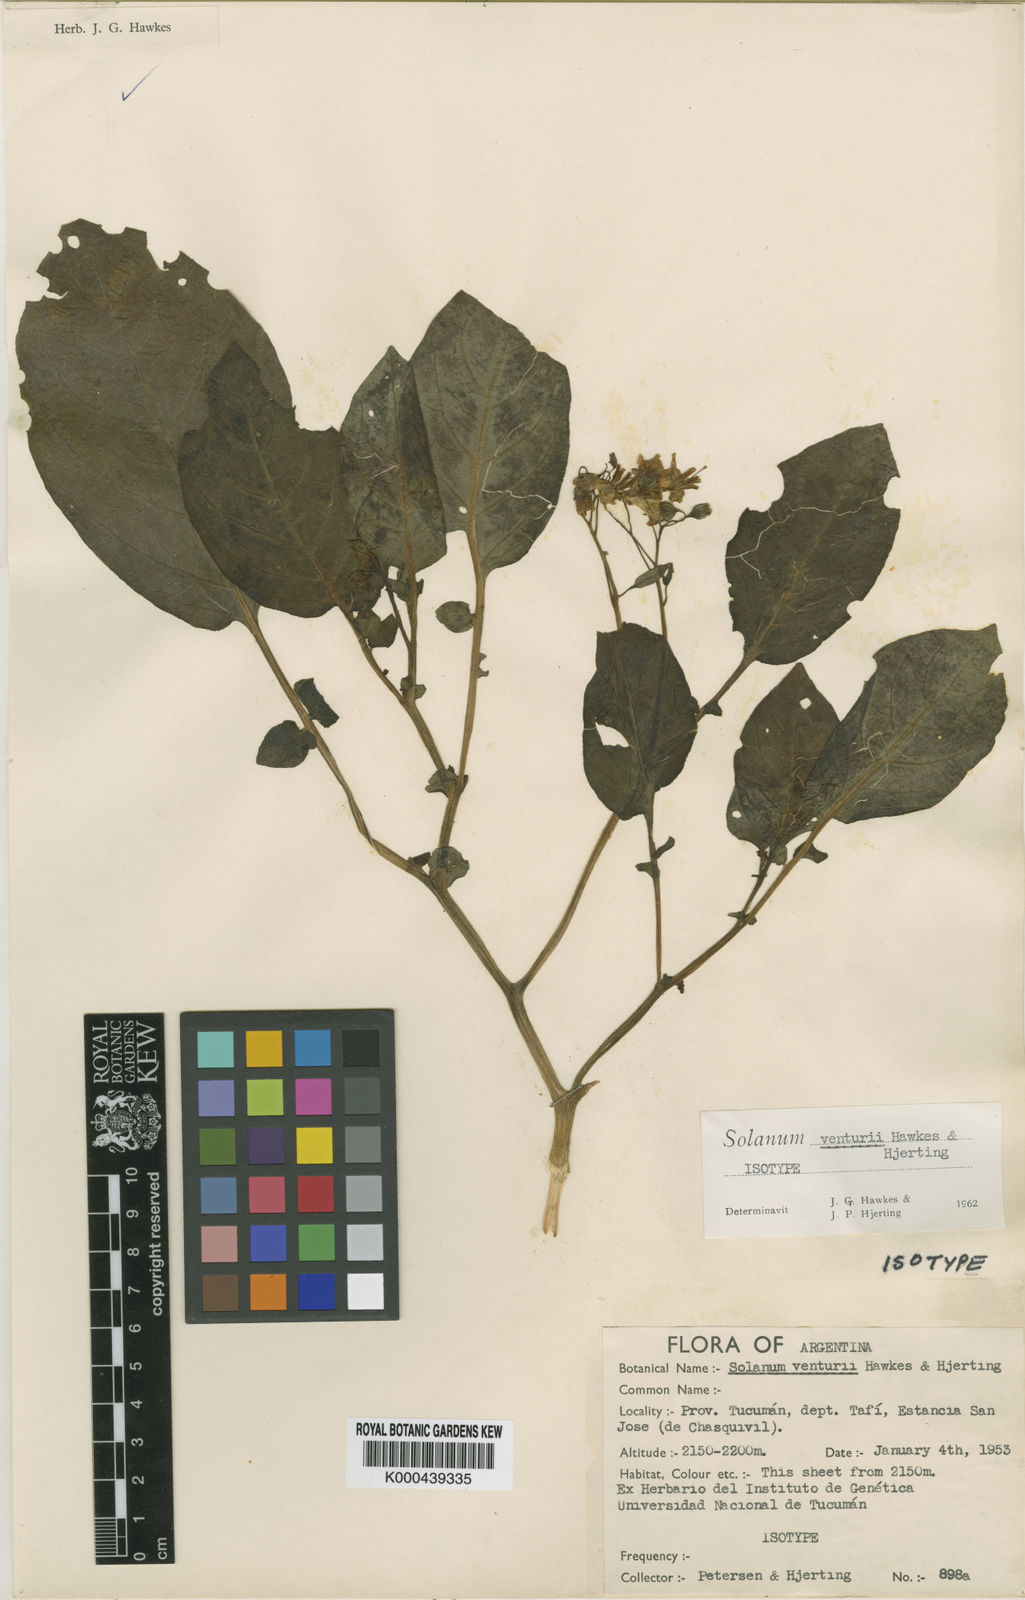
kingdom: Plantae
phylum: Tracheophyta
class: Magnoliopsida
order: Solanales
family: Solanaceae
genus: Solanum
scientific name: Solanum venturii
